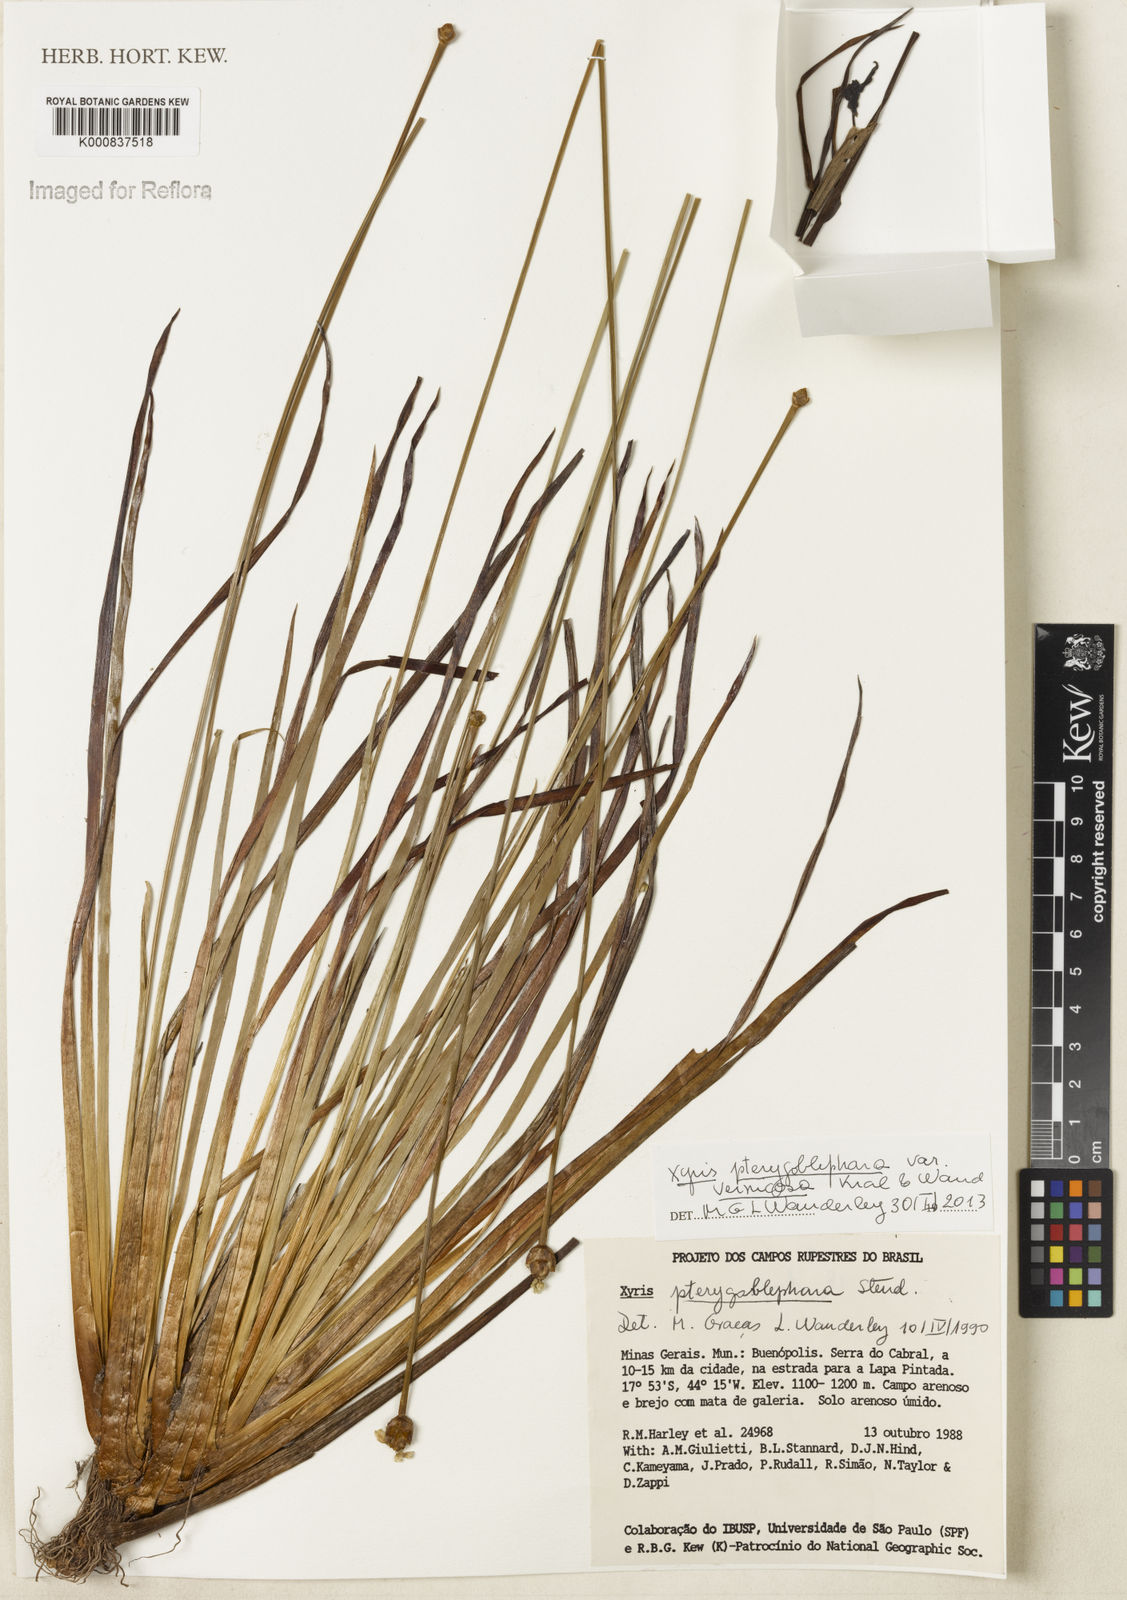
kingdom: Plantae
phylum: Tracheophyta
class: Liliopsida
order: Poales
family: Xyridaceae
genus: Xyris
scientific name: Xyris pterygoblephara
